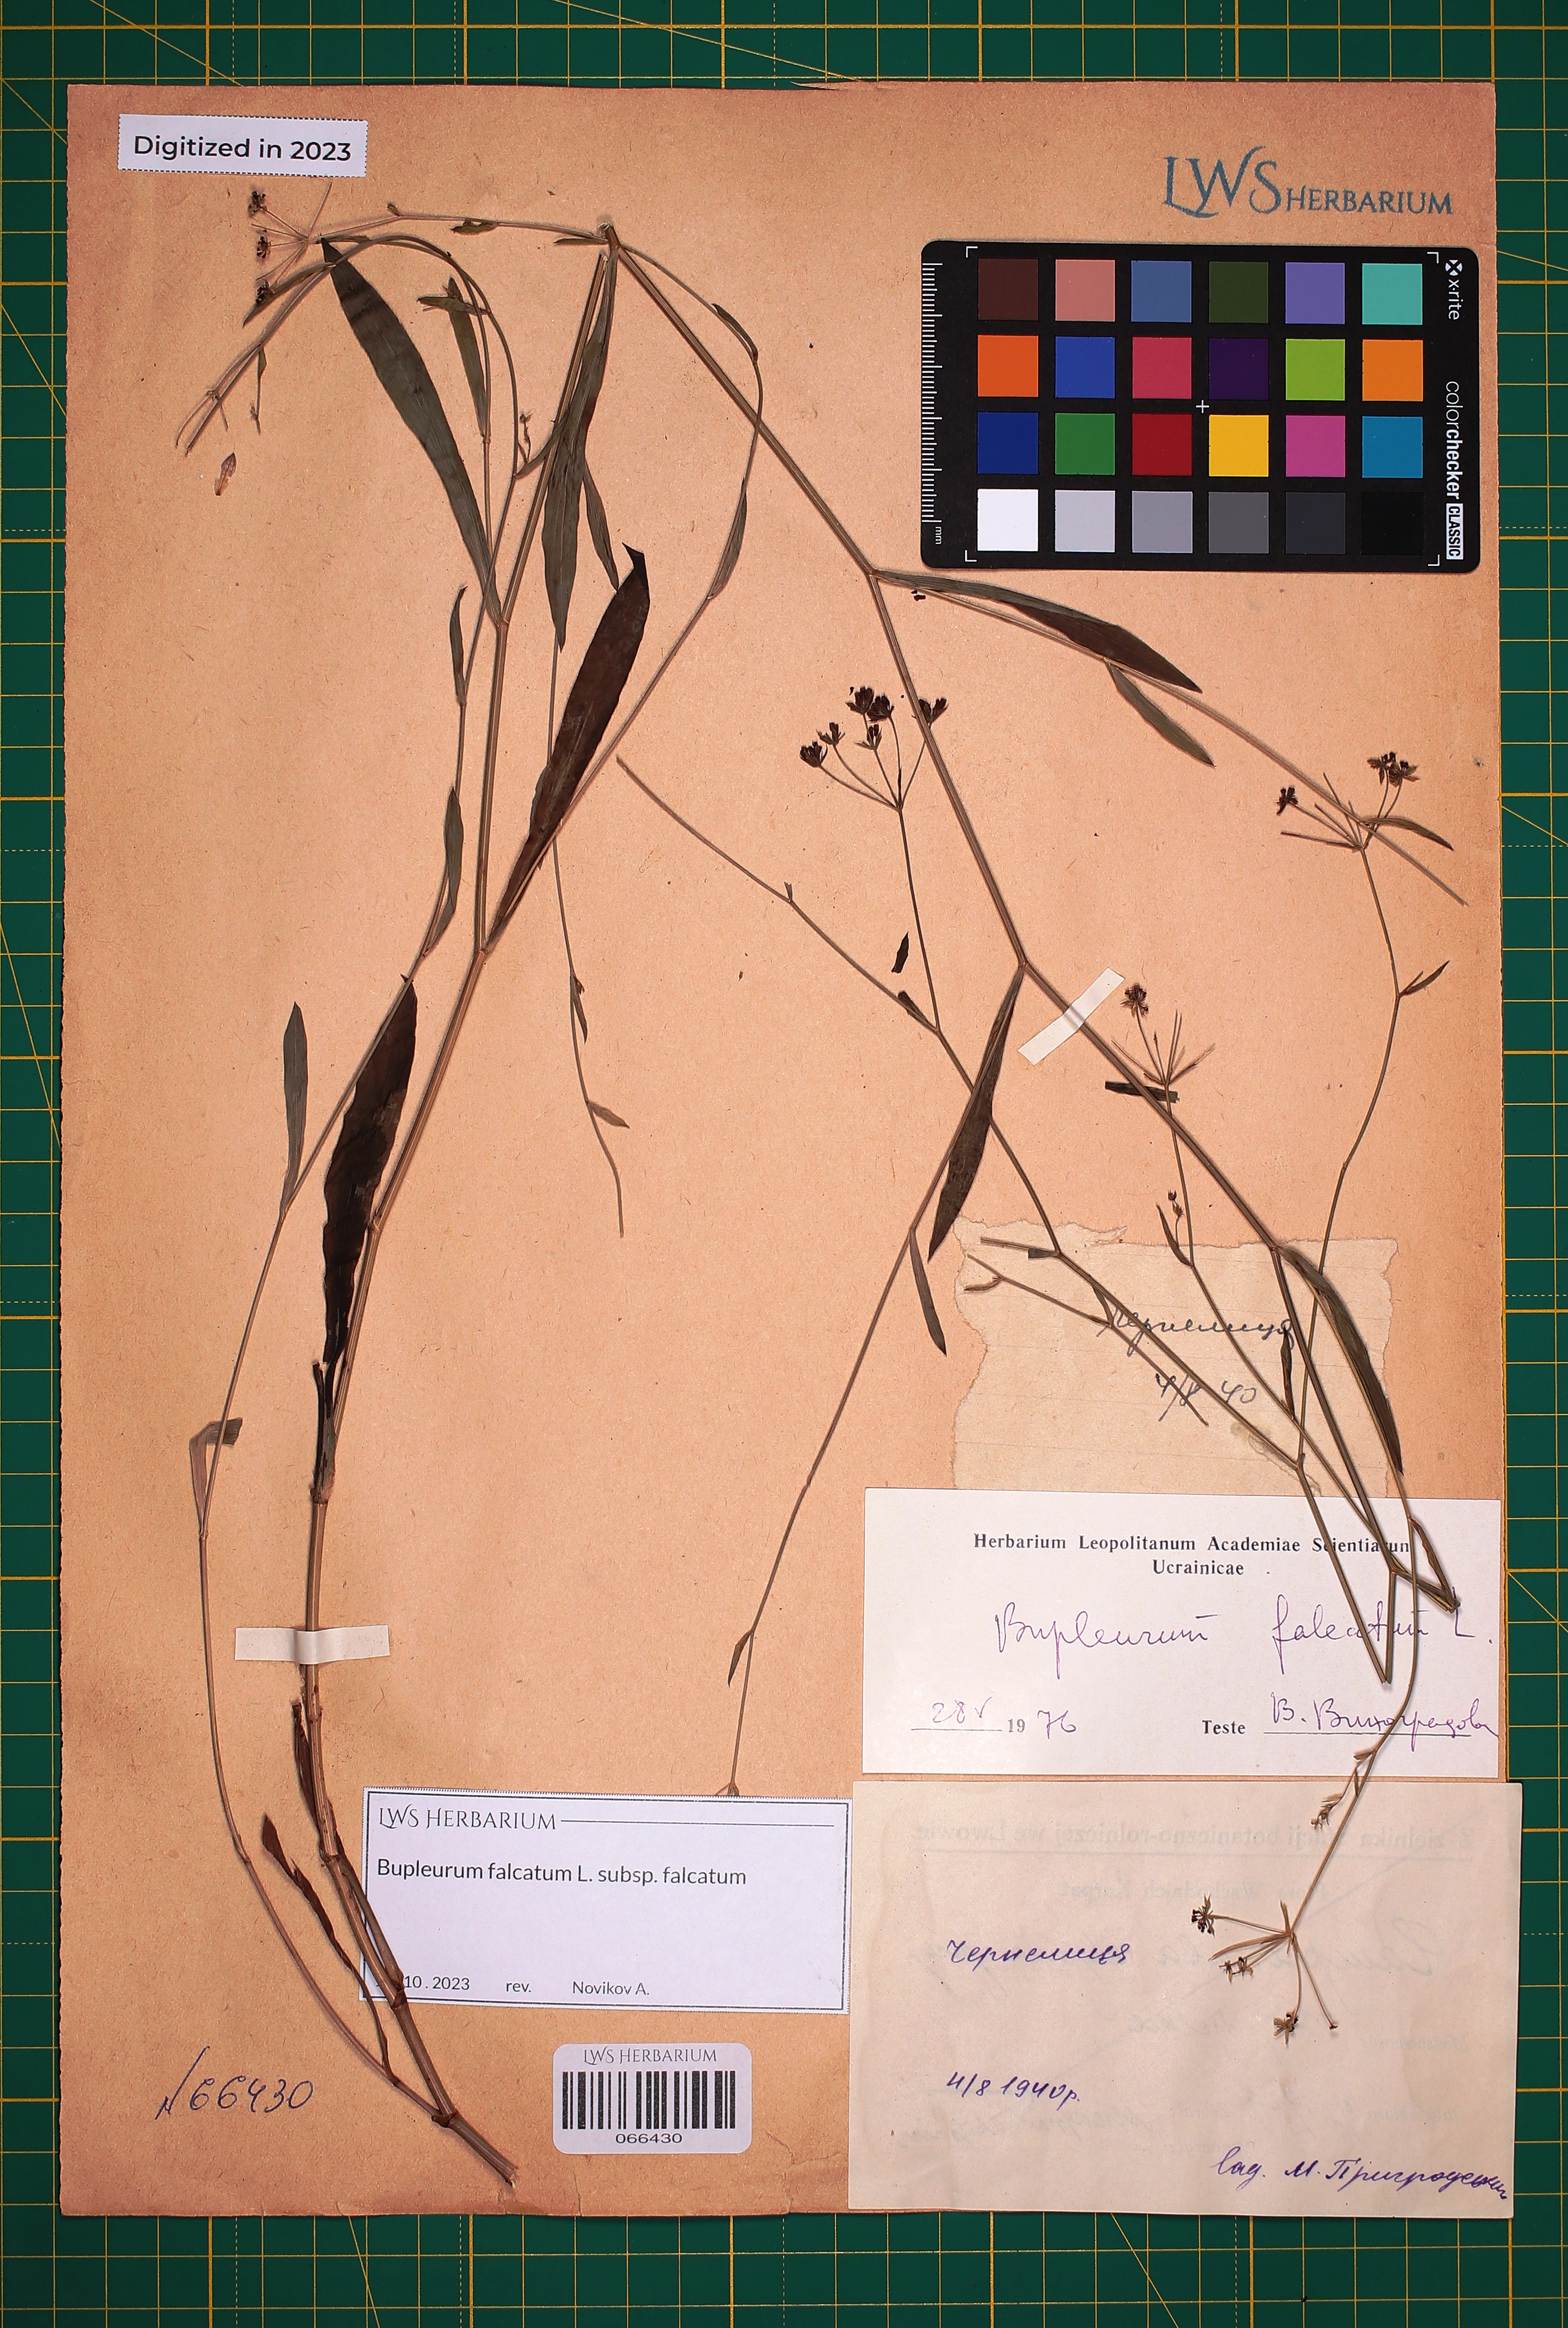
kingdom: Plantae
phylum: Tracheophyta
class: Magnoliopsida
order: Apiales
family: Apiaceae
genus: Bupleurum
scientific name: Bupleurum falcatum
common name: Sickle-leaved hare's-ear
